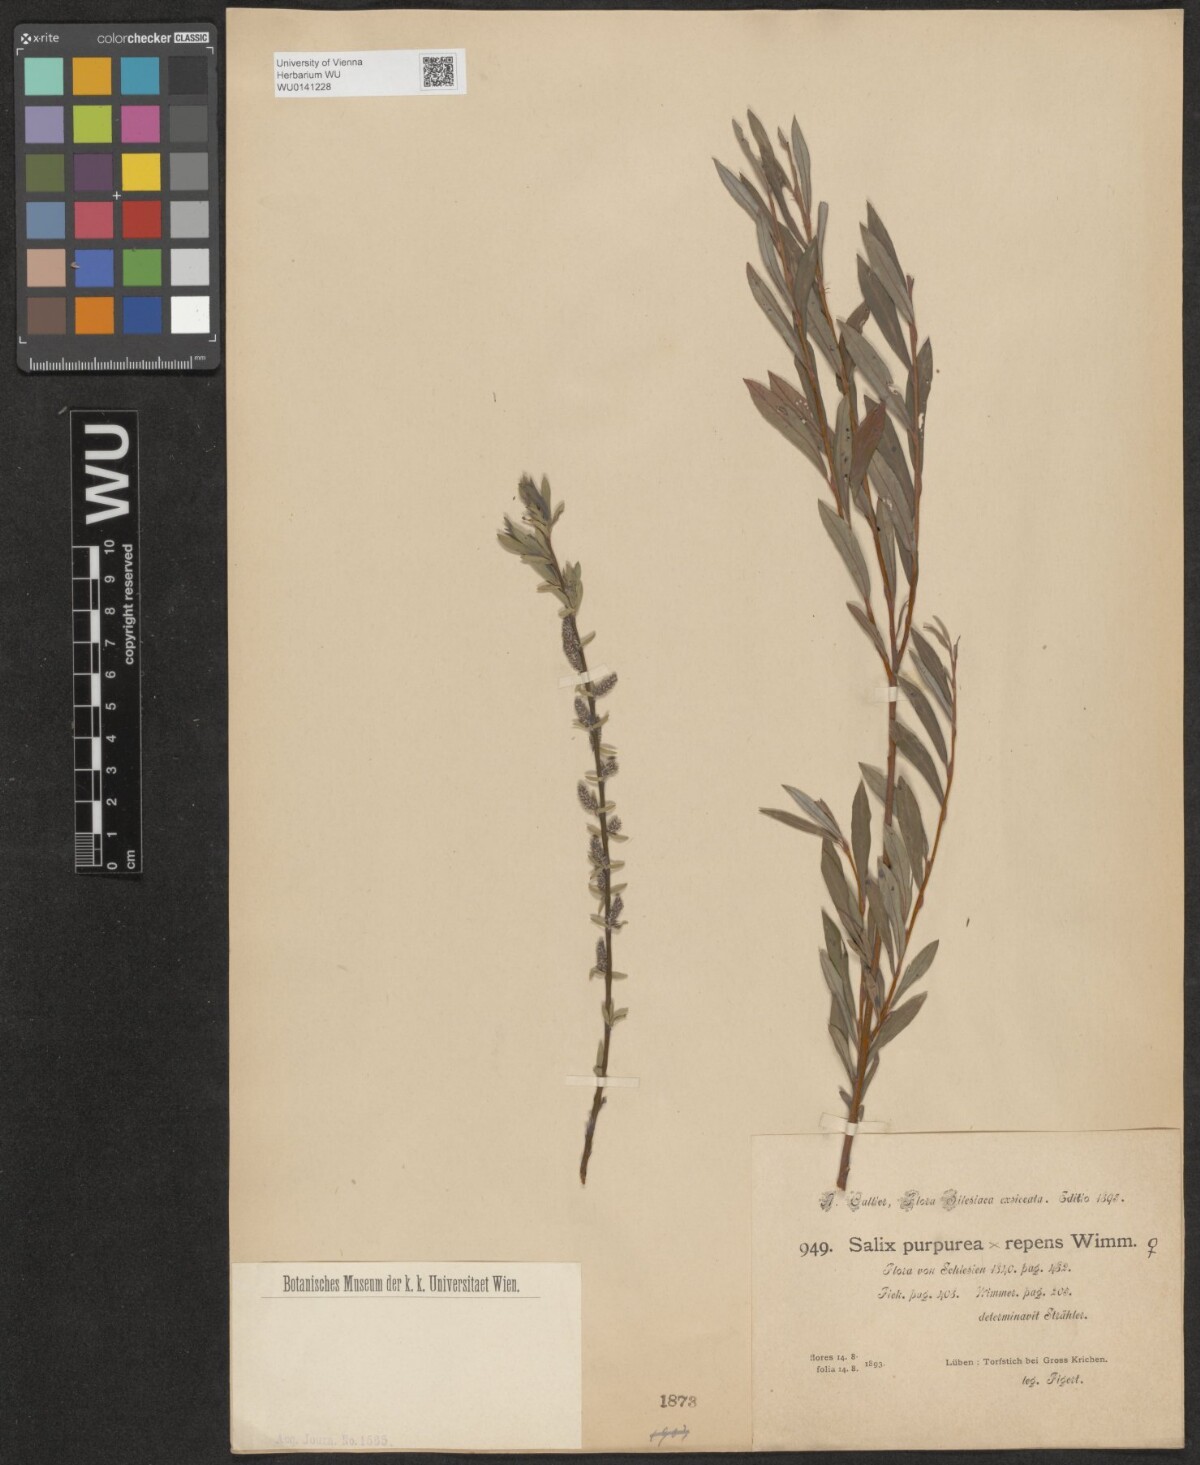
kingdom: Plantae
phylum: Tracheophyta
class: Magnoliopsida
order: Malpighiales
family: Salicaceae
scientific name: Salicaceae
